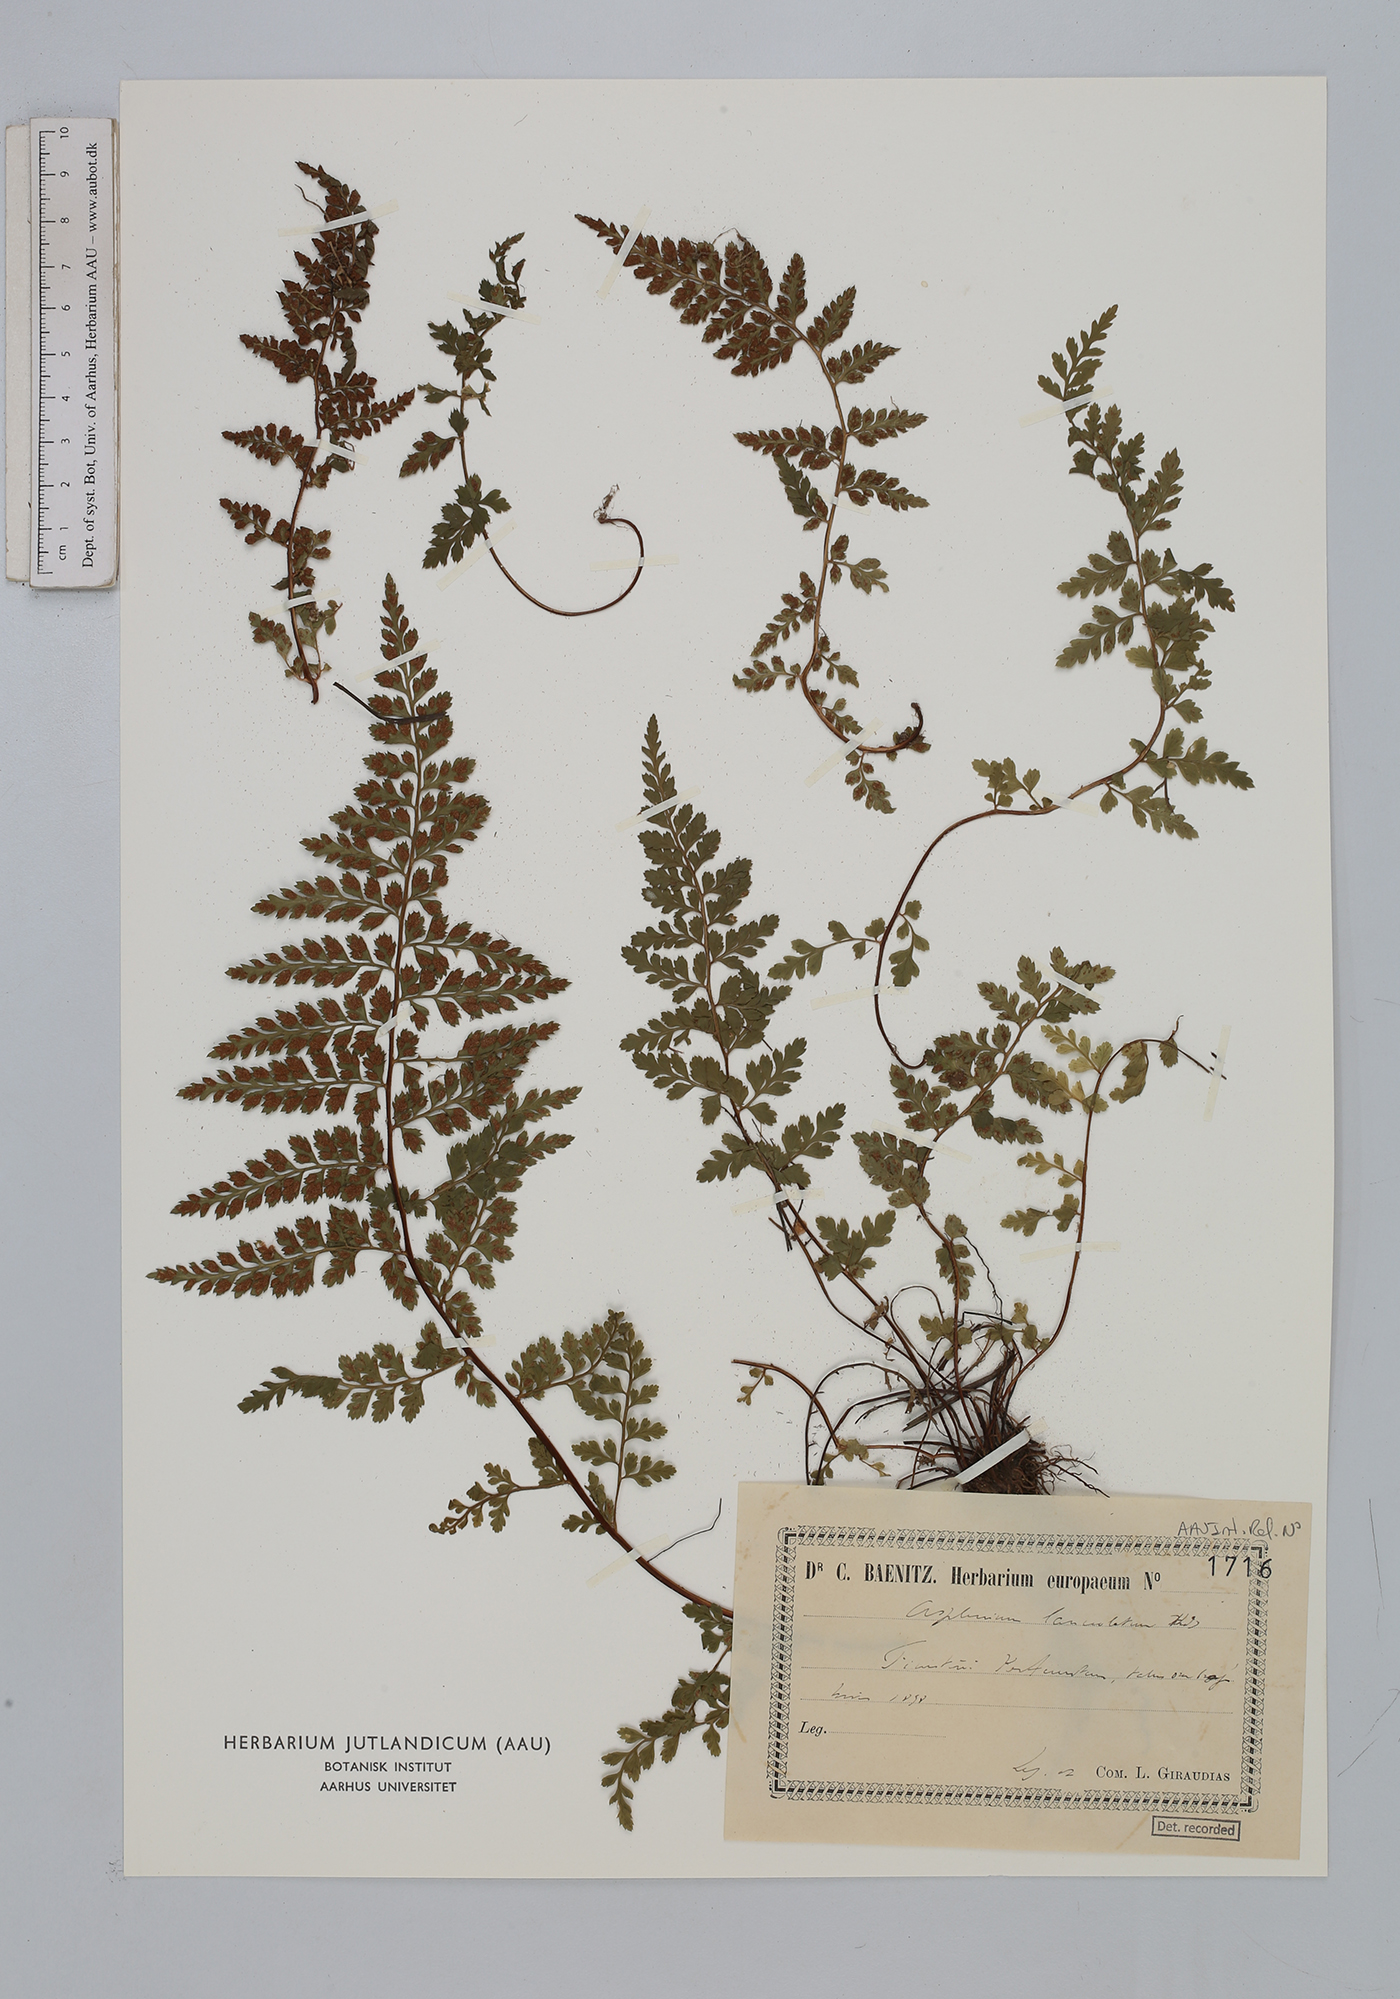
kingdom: Plantae
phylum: Tracheophyta
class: Polypodiopsida
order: Polypodiales
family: Aspleniaceae
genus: Asplenium
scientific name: Asplenium obovatum
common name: Lanceolate spleenwort
